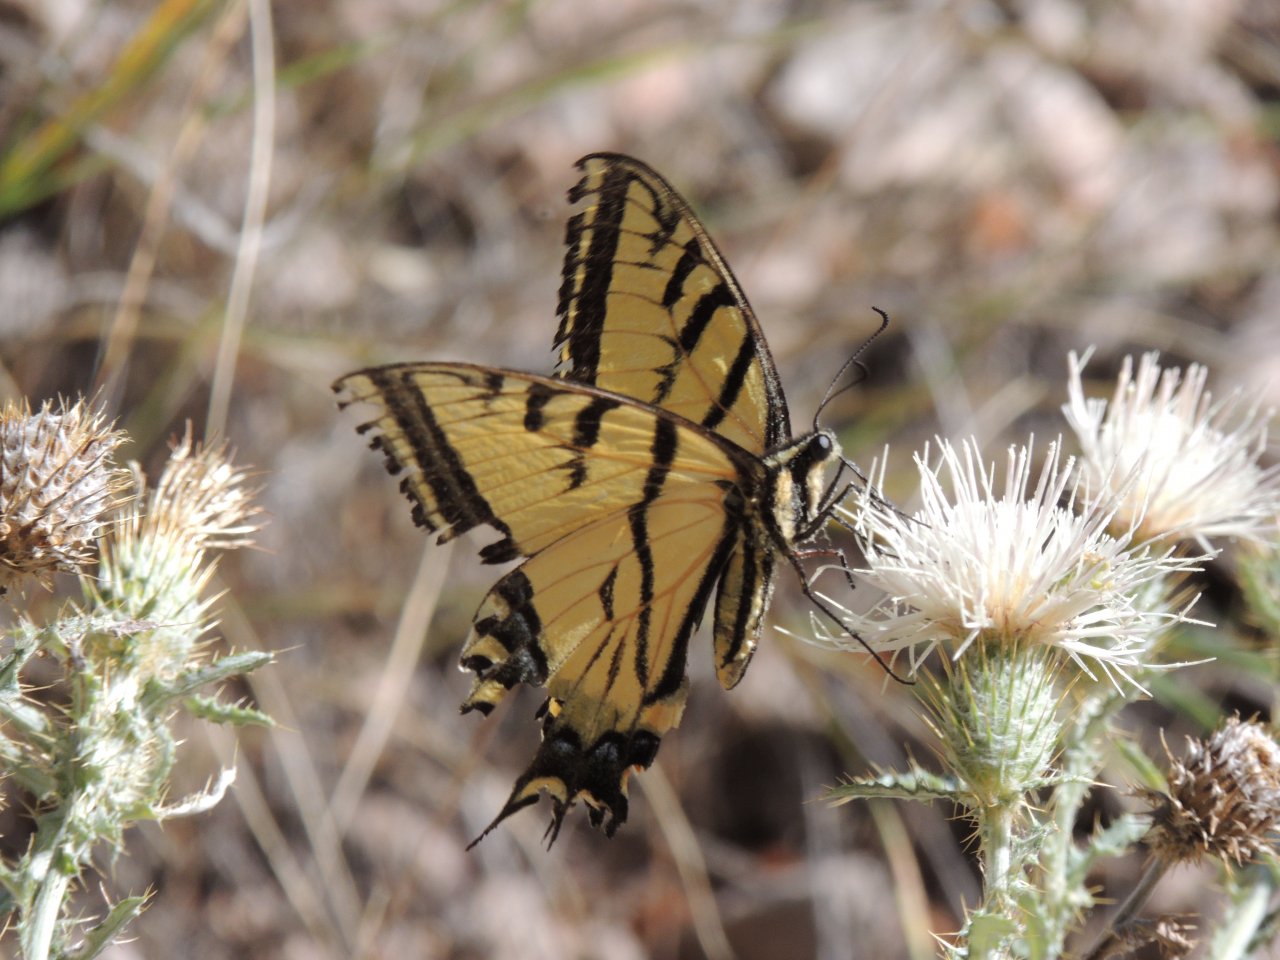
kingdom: Animalia
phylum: Arthropoda
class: Insecta
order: Lepidoptera
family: Papilionidae
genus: Papilio
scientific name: Papilio multicaudata
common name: Two-tailed Swallowtail
